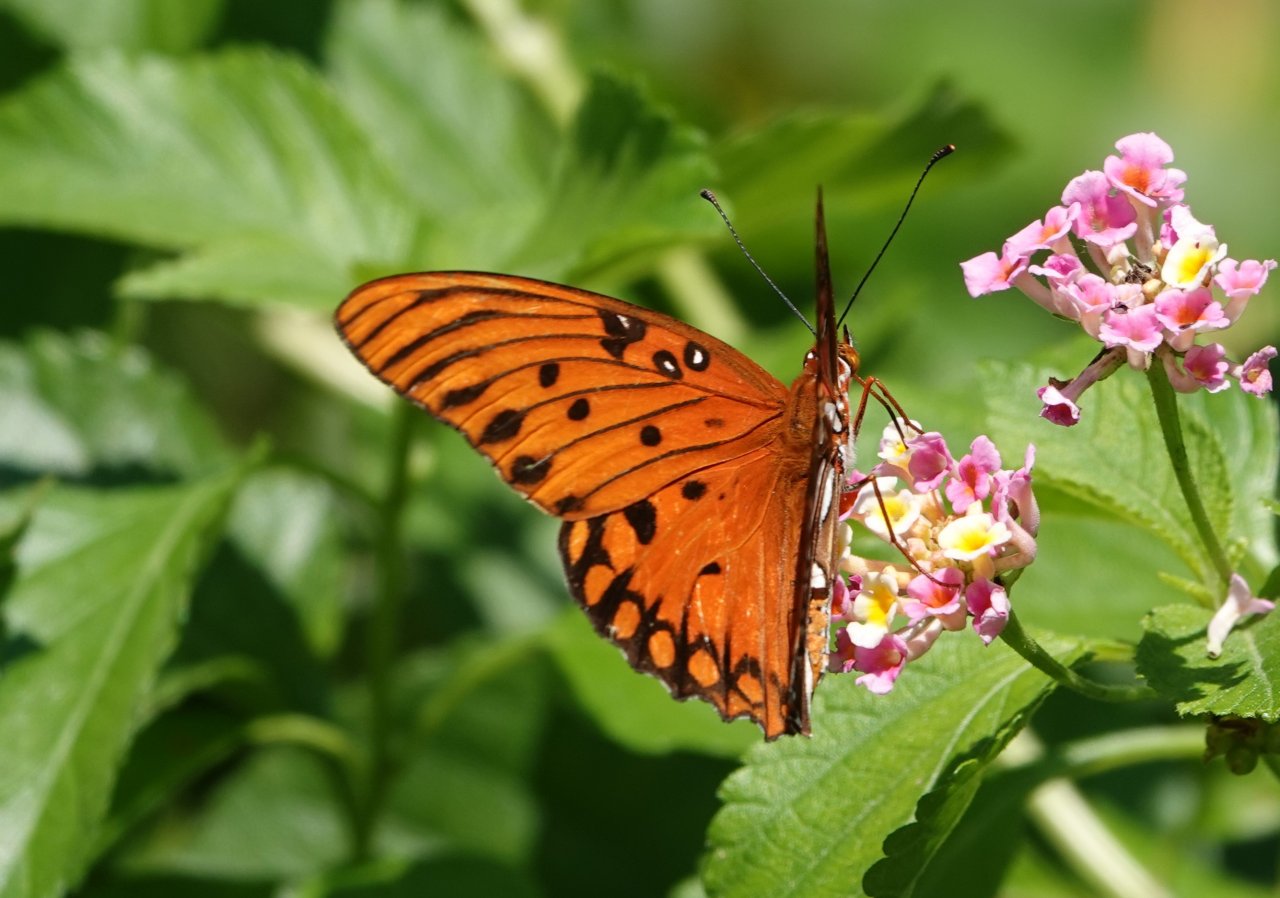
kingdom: Animalia
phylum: Arthropoda
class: Insecta
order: Lepidoptera
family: Nymphalidae
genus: Dione
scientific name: Dione vanillae
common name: Gulf Fritillary
